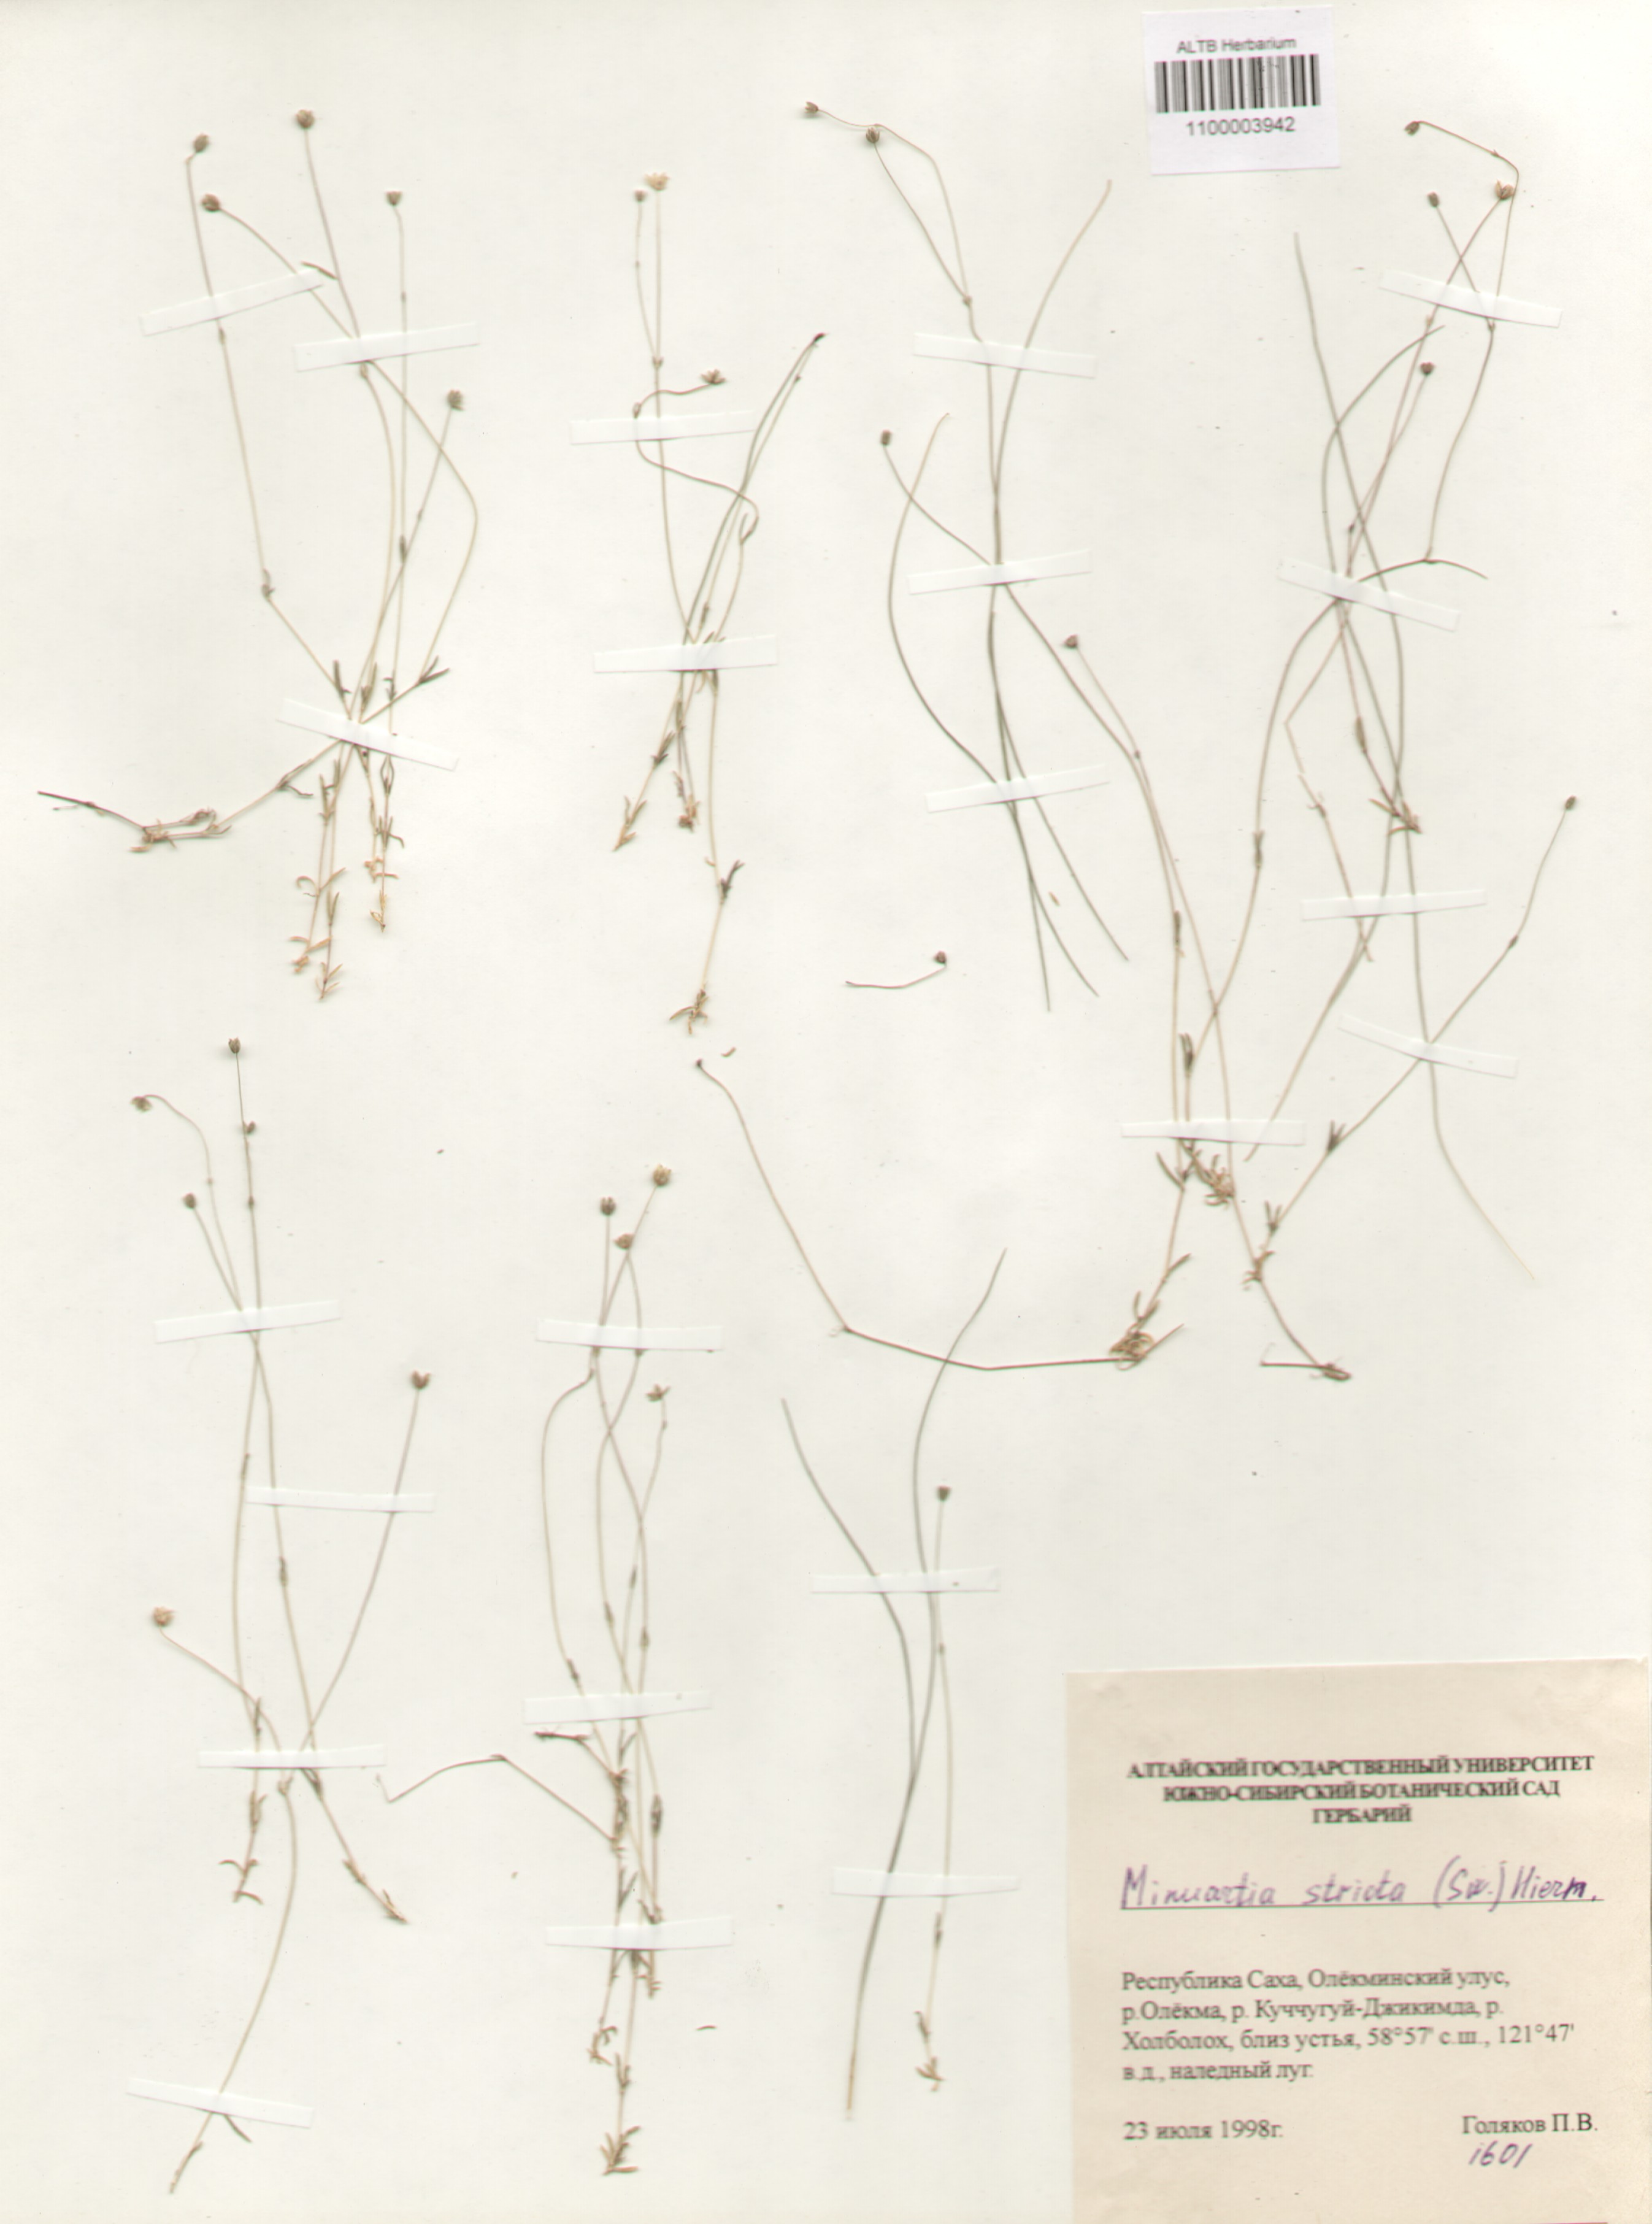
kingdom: Plantae
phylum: Tracheophyta
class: Magnoliopsida
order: Caryophyllales
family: Caryophyllaceae
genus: Sabulina
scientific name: Sabulina stricta
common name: Bog sandwort
